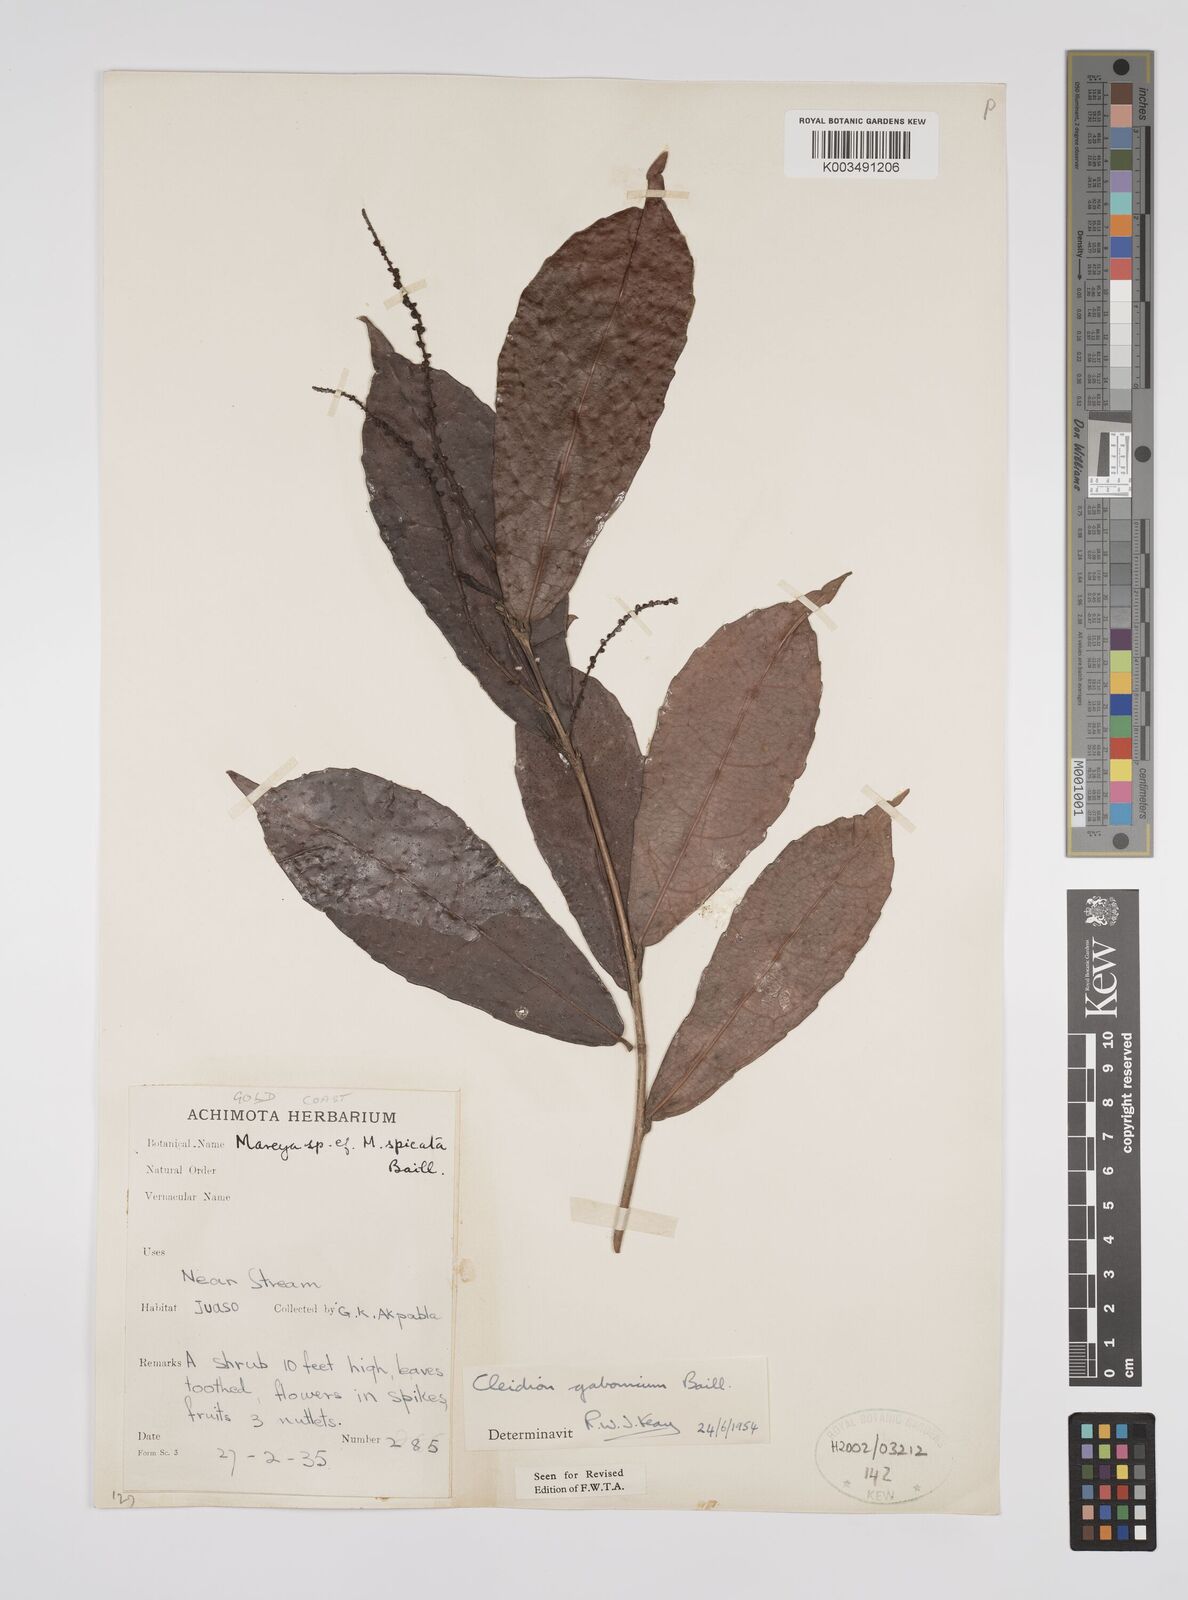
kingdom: Plantae
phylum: Tracheophyta
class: Magnoliopsida
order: Malpighiales
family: Euphorbiaceae
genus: Cleidion
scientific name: Cleidion gabonicum
